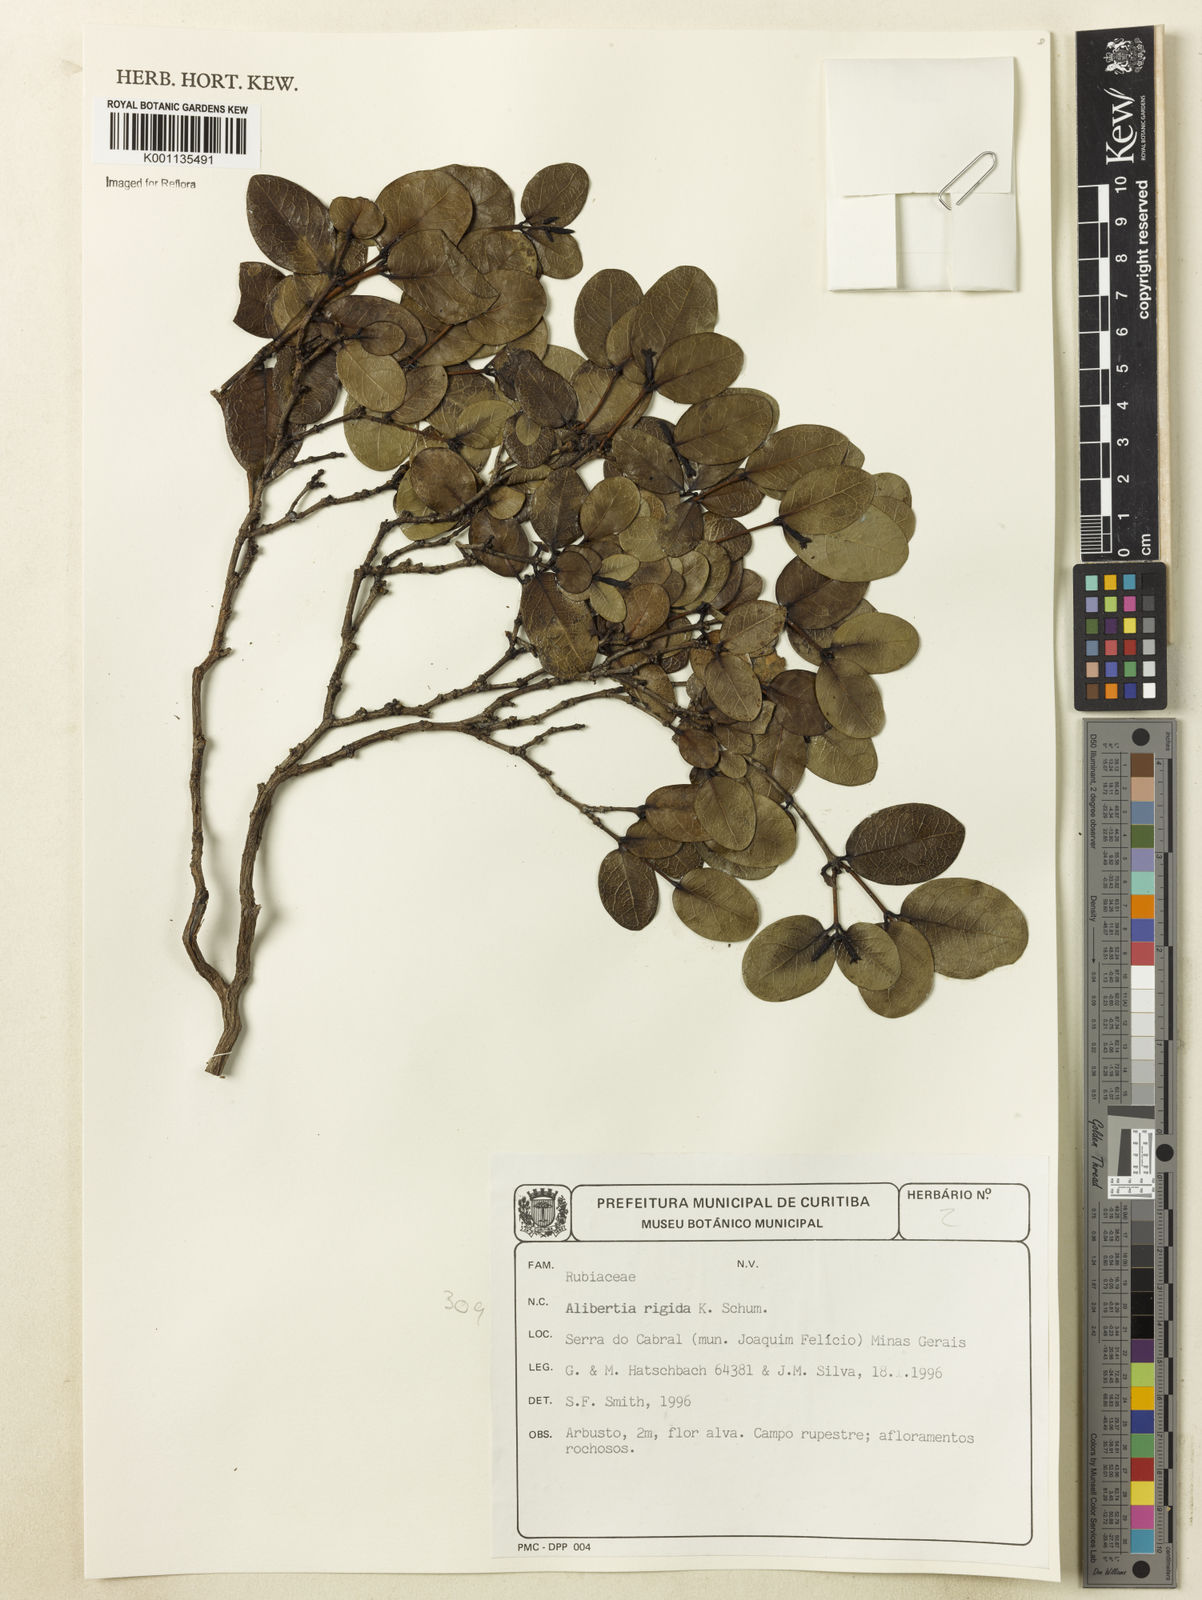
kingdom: Plantae
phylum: Tracheophyta
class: Magnoliopsida
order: Gentianales
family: Rubiaceae
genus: Cordiera
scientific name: Cordiera rigida
